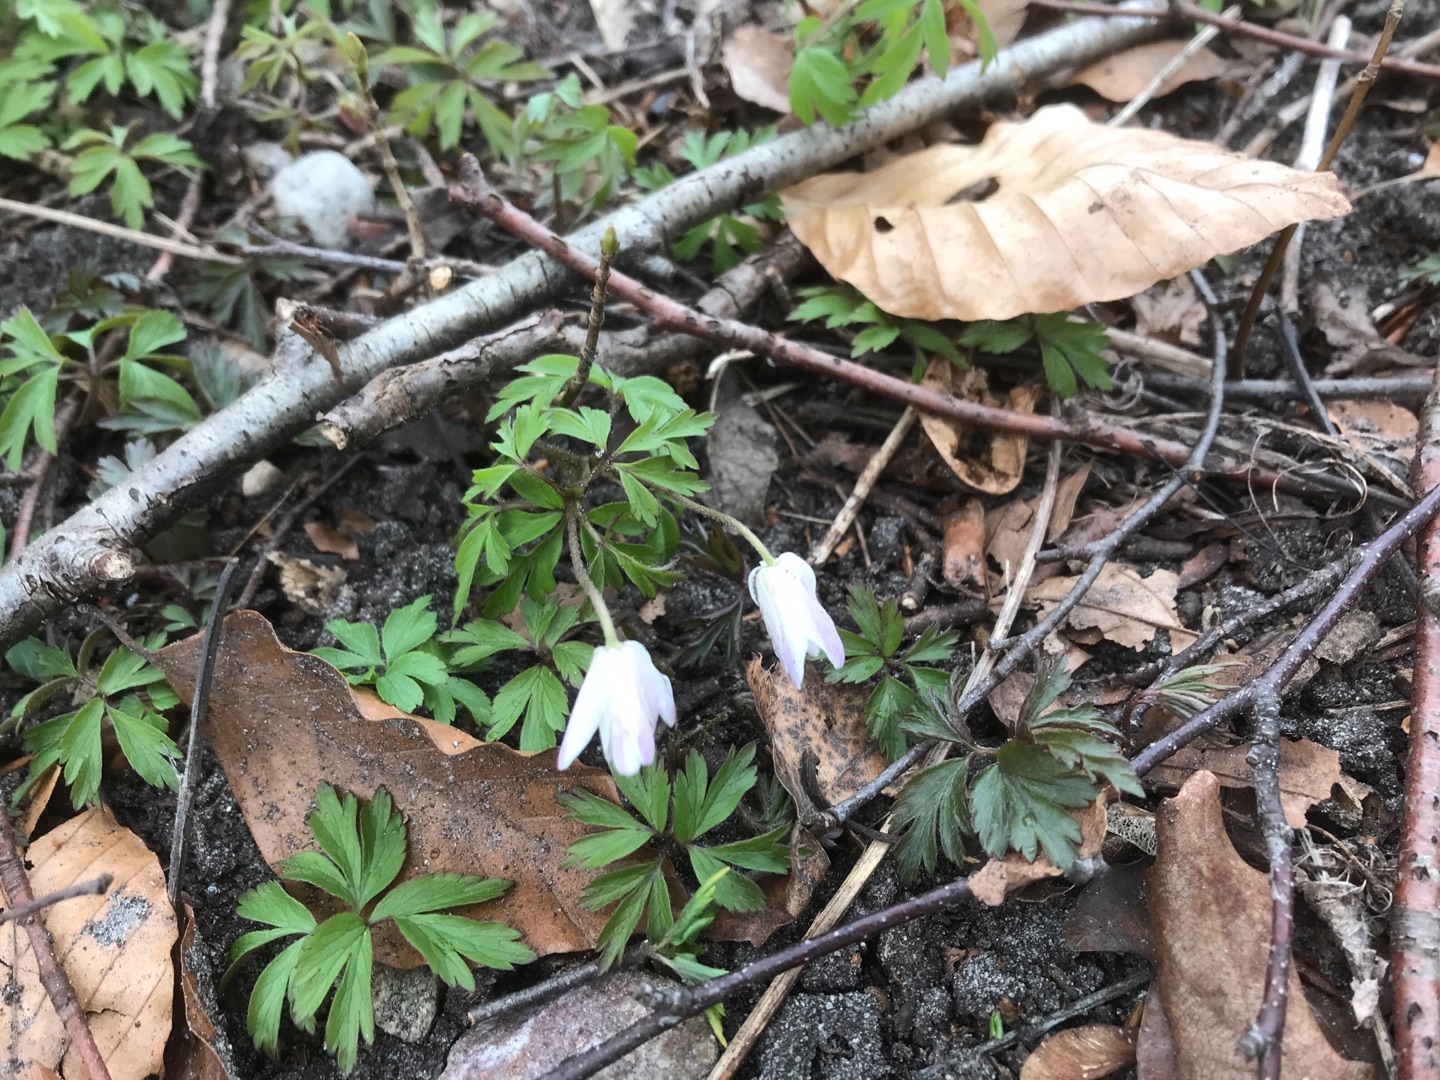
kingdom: Plantae
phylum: Tracheophyta
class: Magnoliopsida
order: Ranunculales
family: Ranunculaceae
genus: Anemone
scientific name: Anemone nemorosa
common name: Hvid anemone
